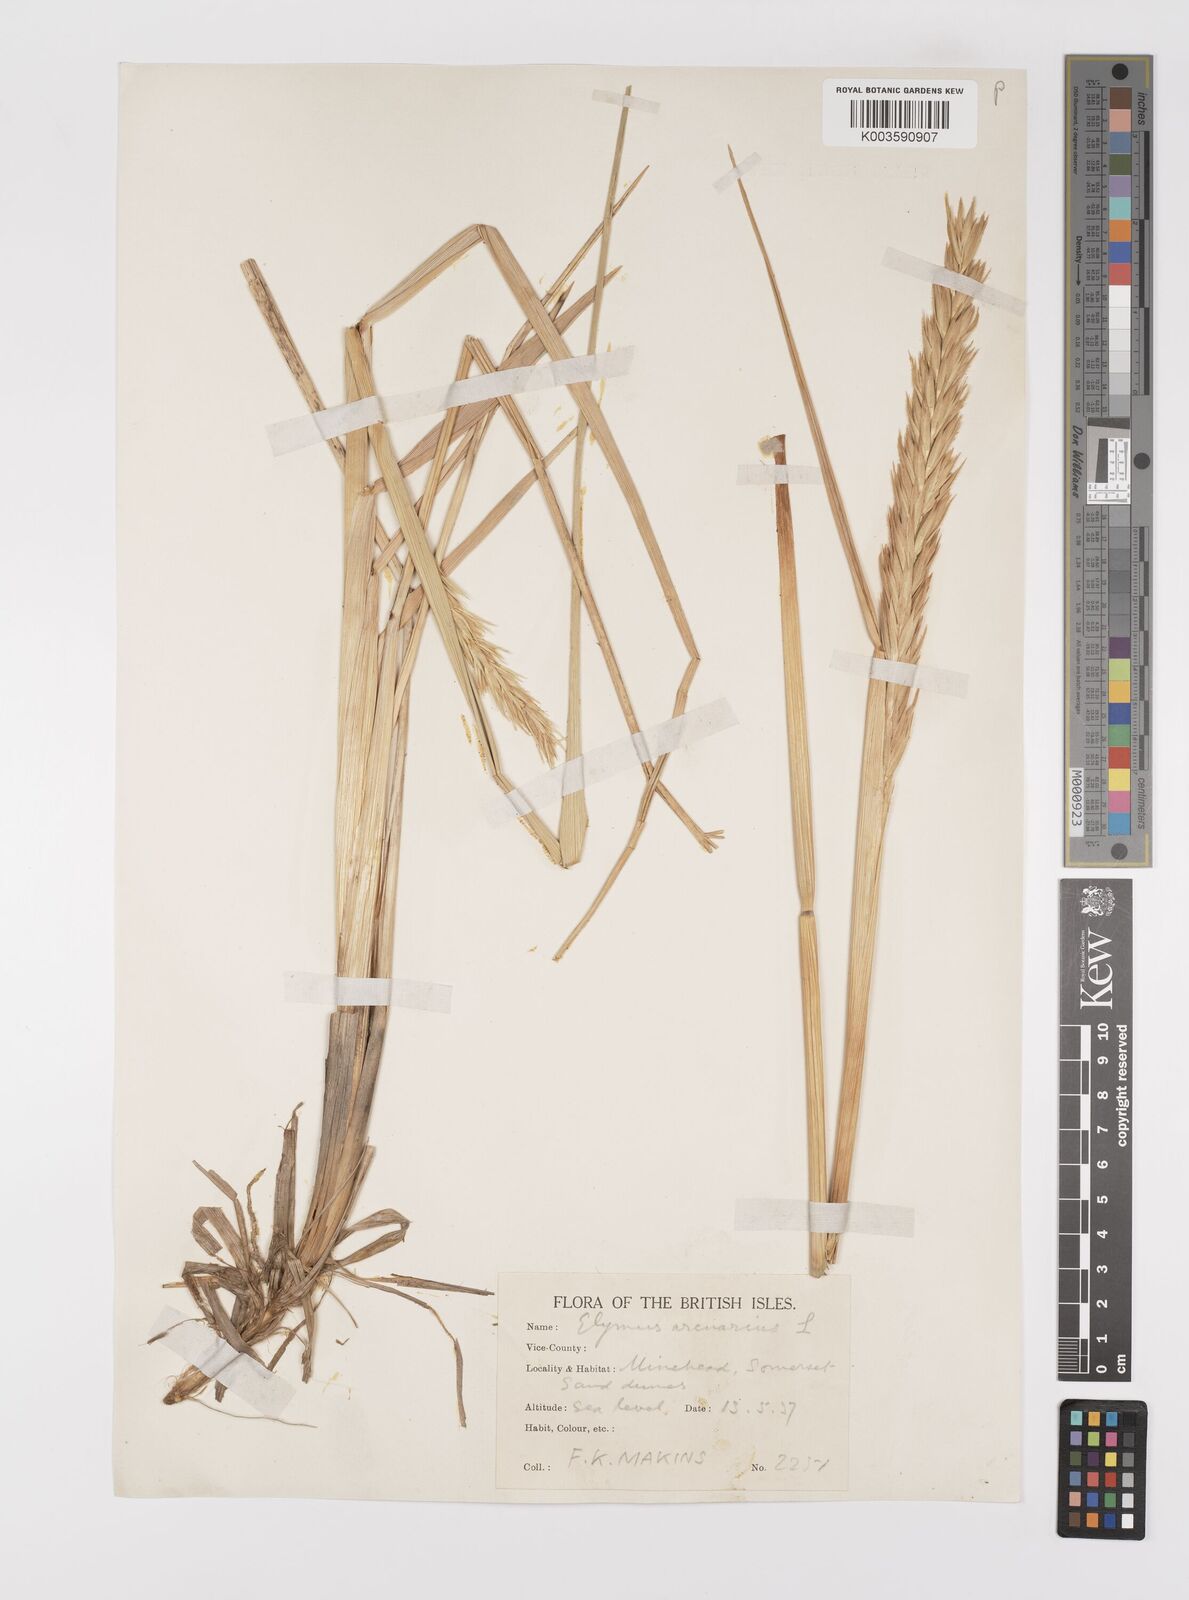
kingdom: Plantae
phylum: Tracheophyta
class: Liliopsida
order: Poales
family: Poaceae
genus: Leymus
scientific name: Leymus arenarius
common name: Lyme-grass
